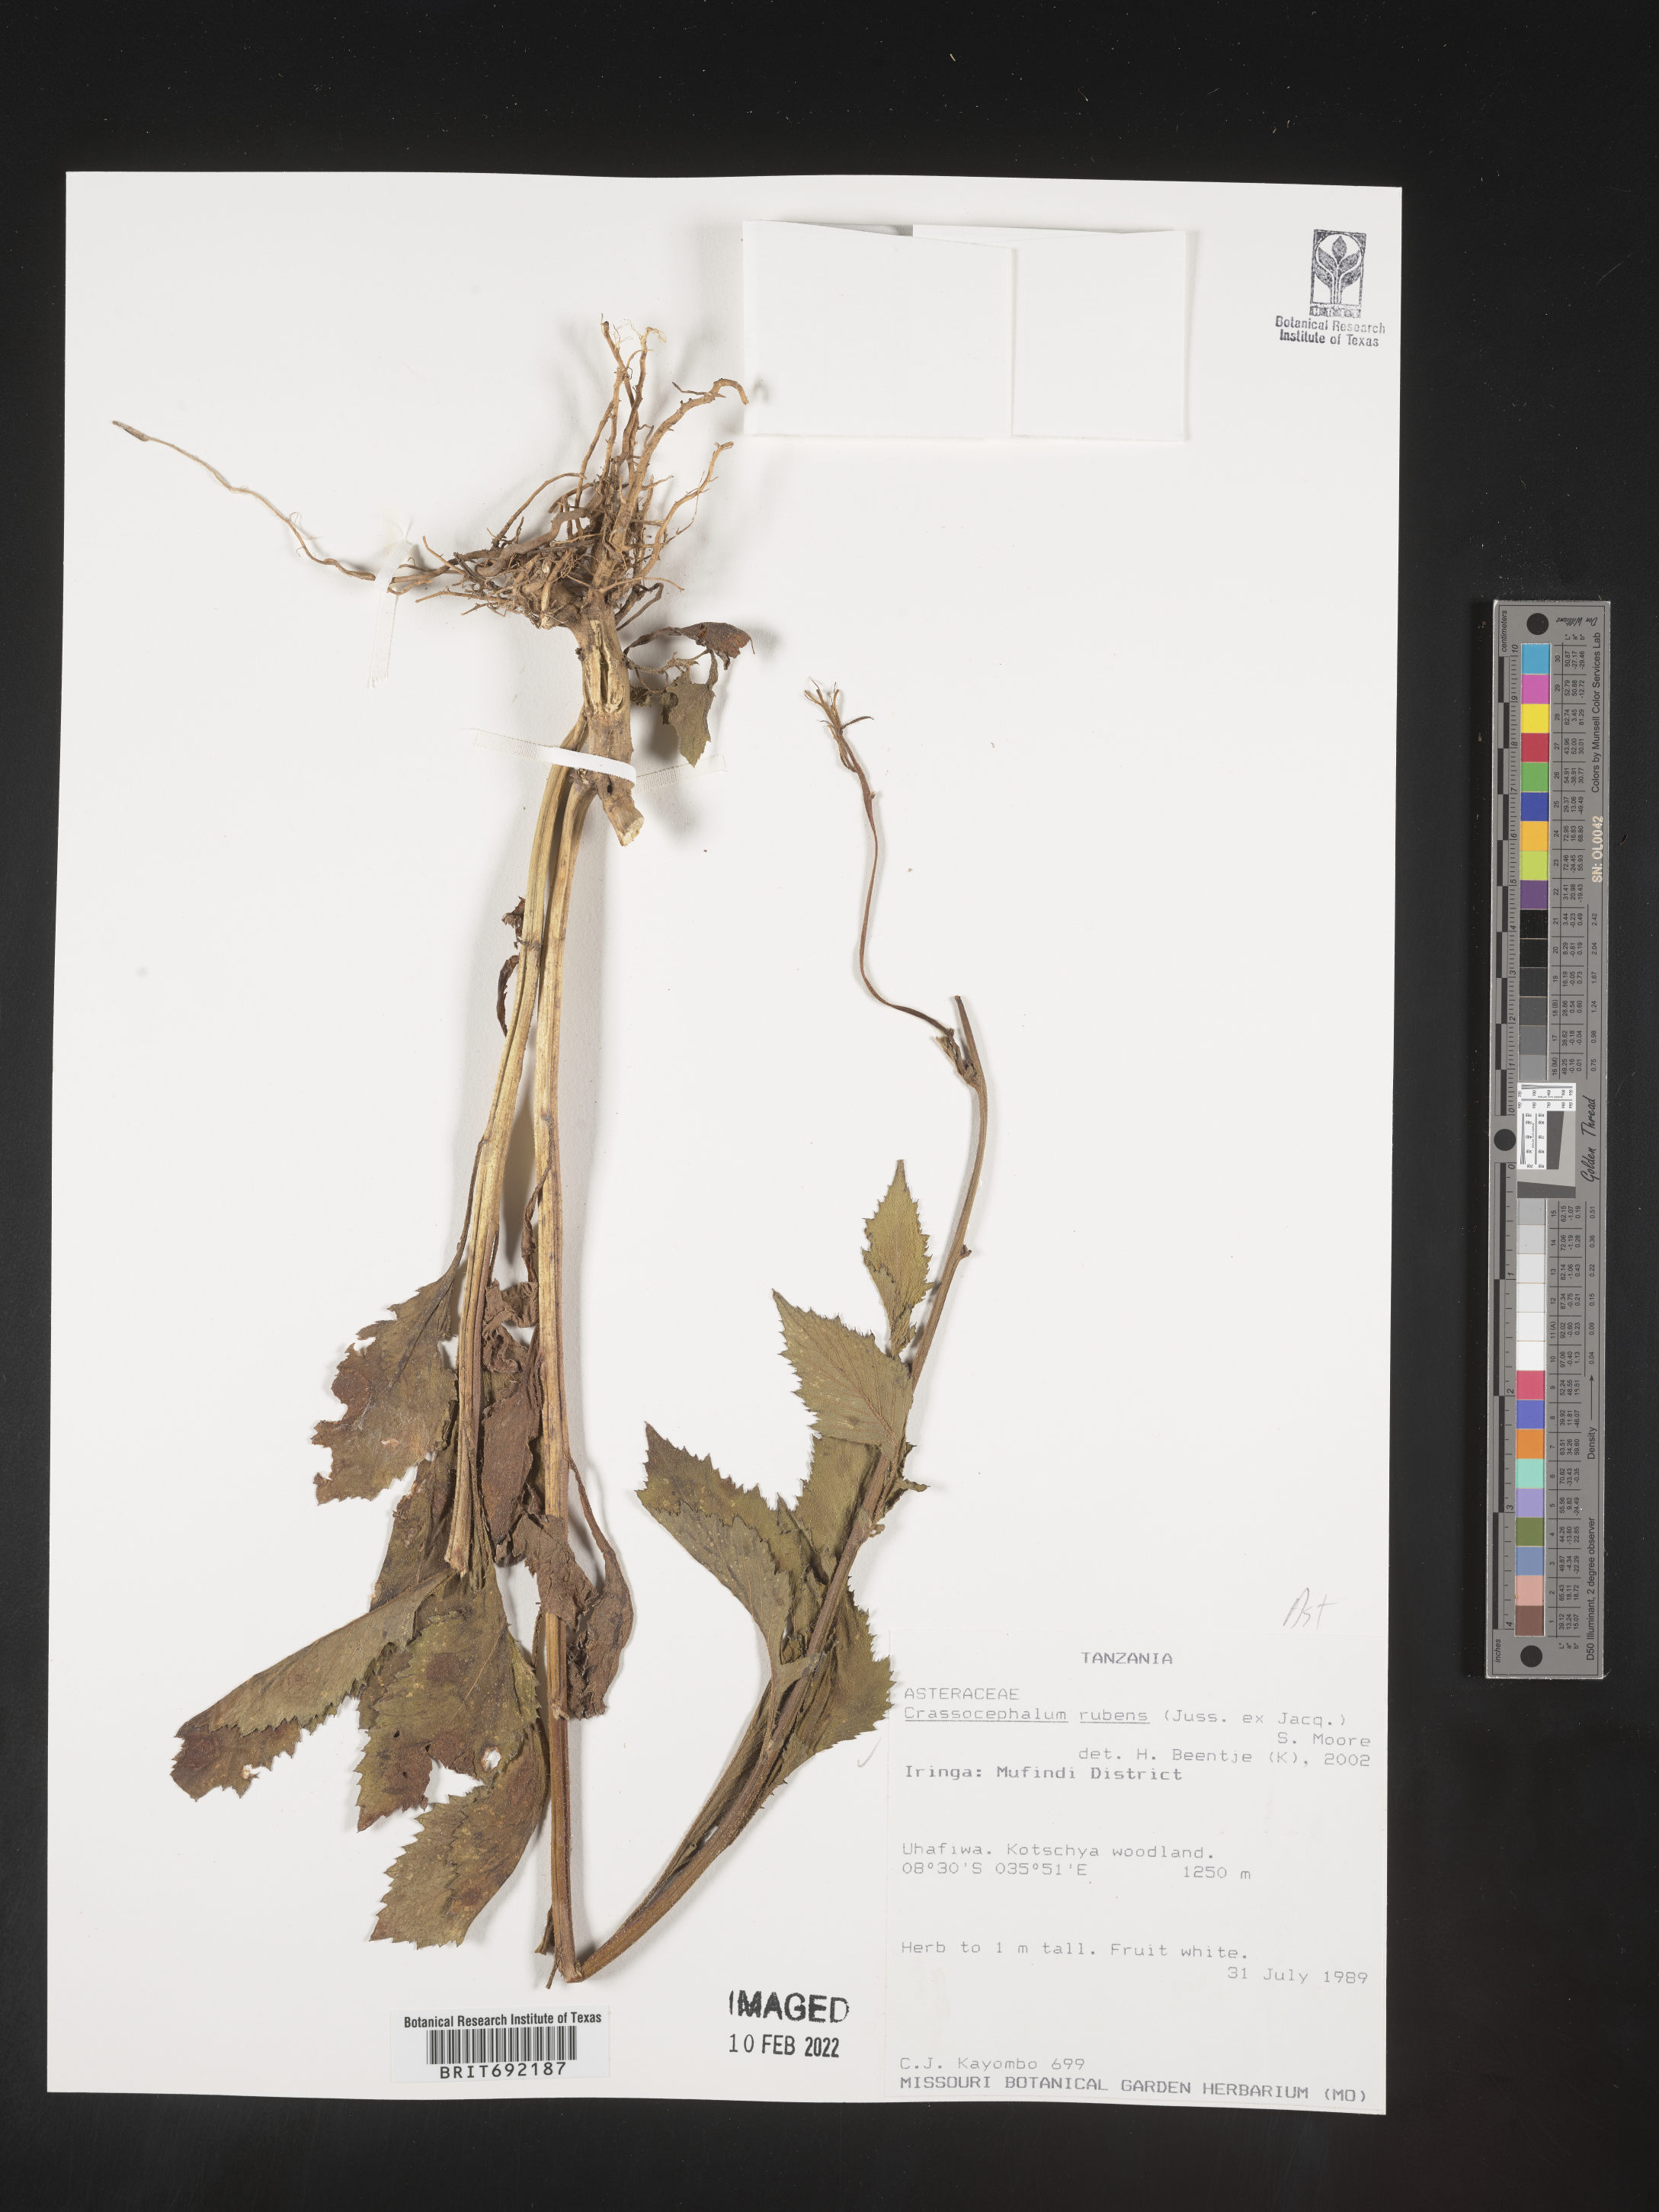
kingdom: Plantae
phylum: Tracheophyta
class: Magnoliopsida
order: Asterales
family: Asteraceae
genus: Crassocephalum
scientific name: Crassocephalum
